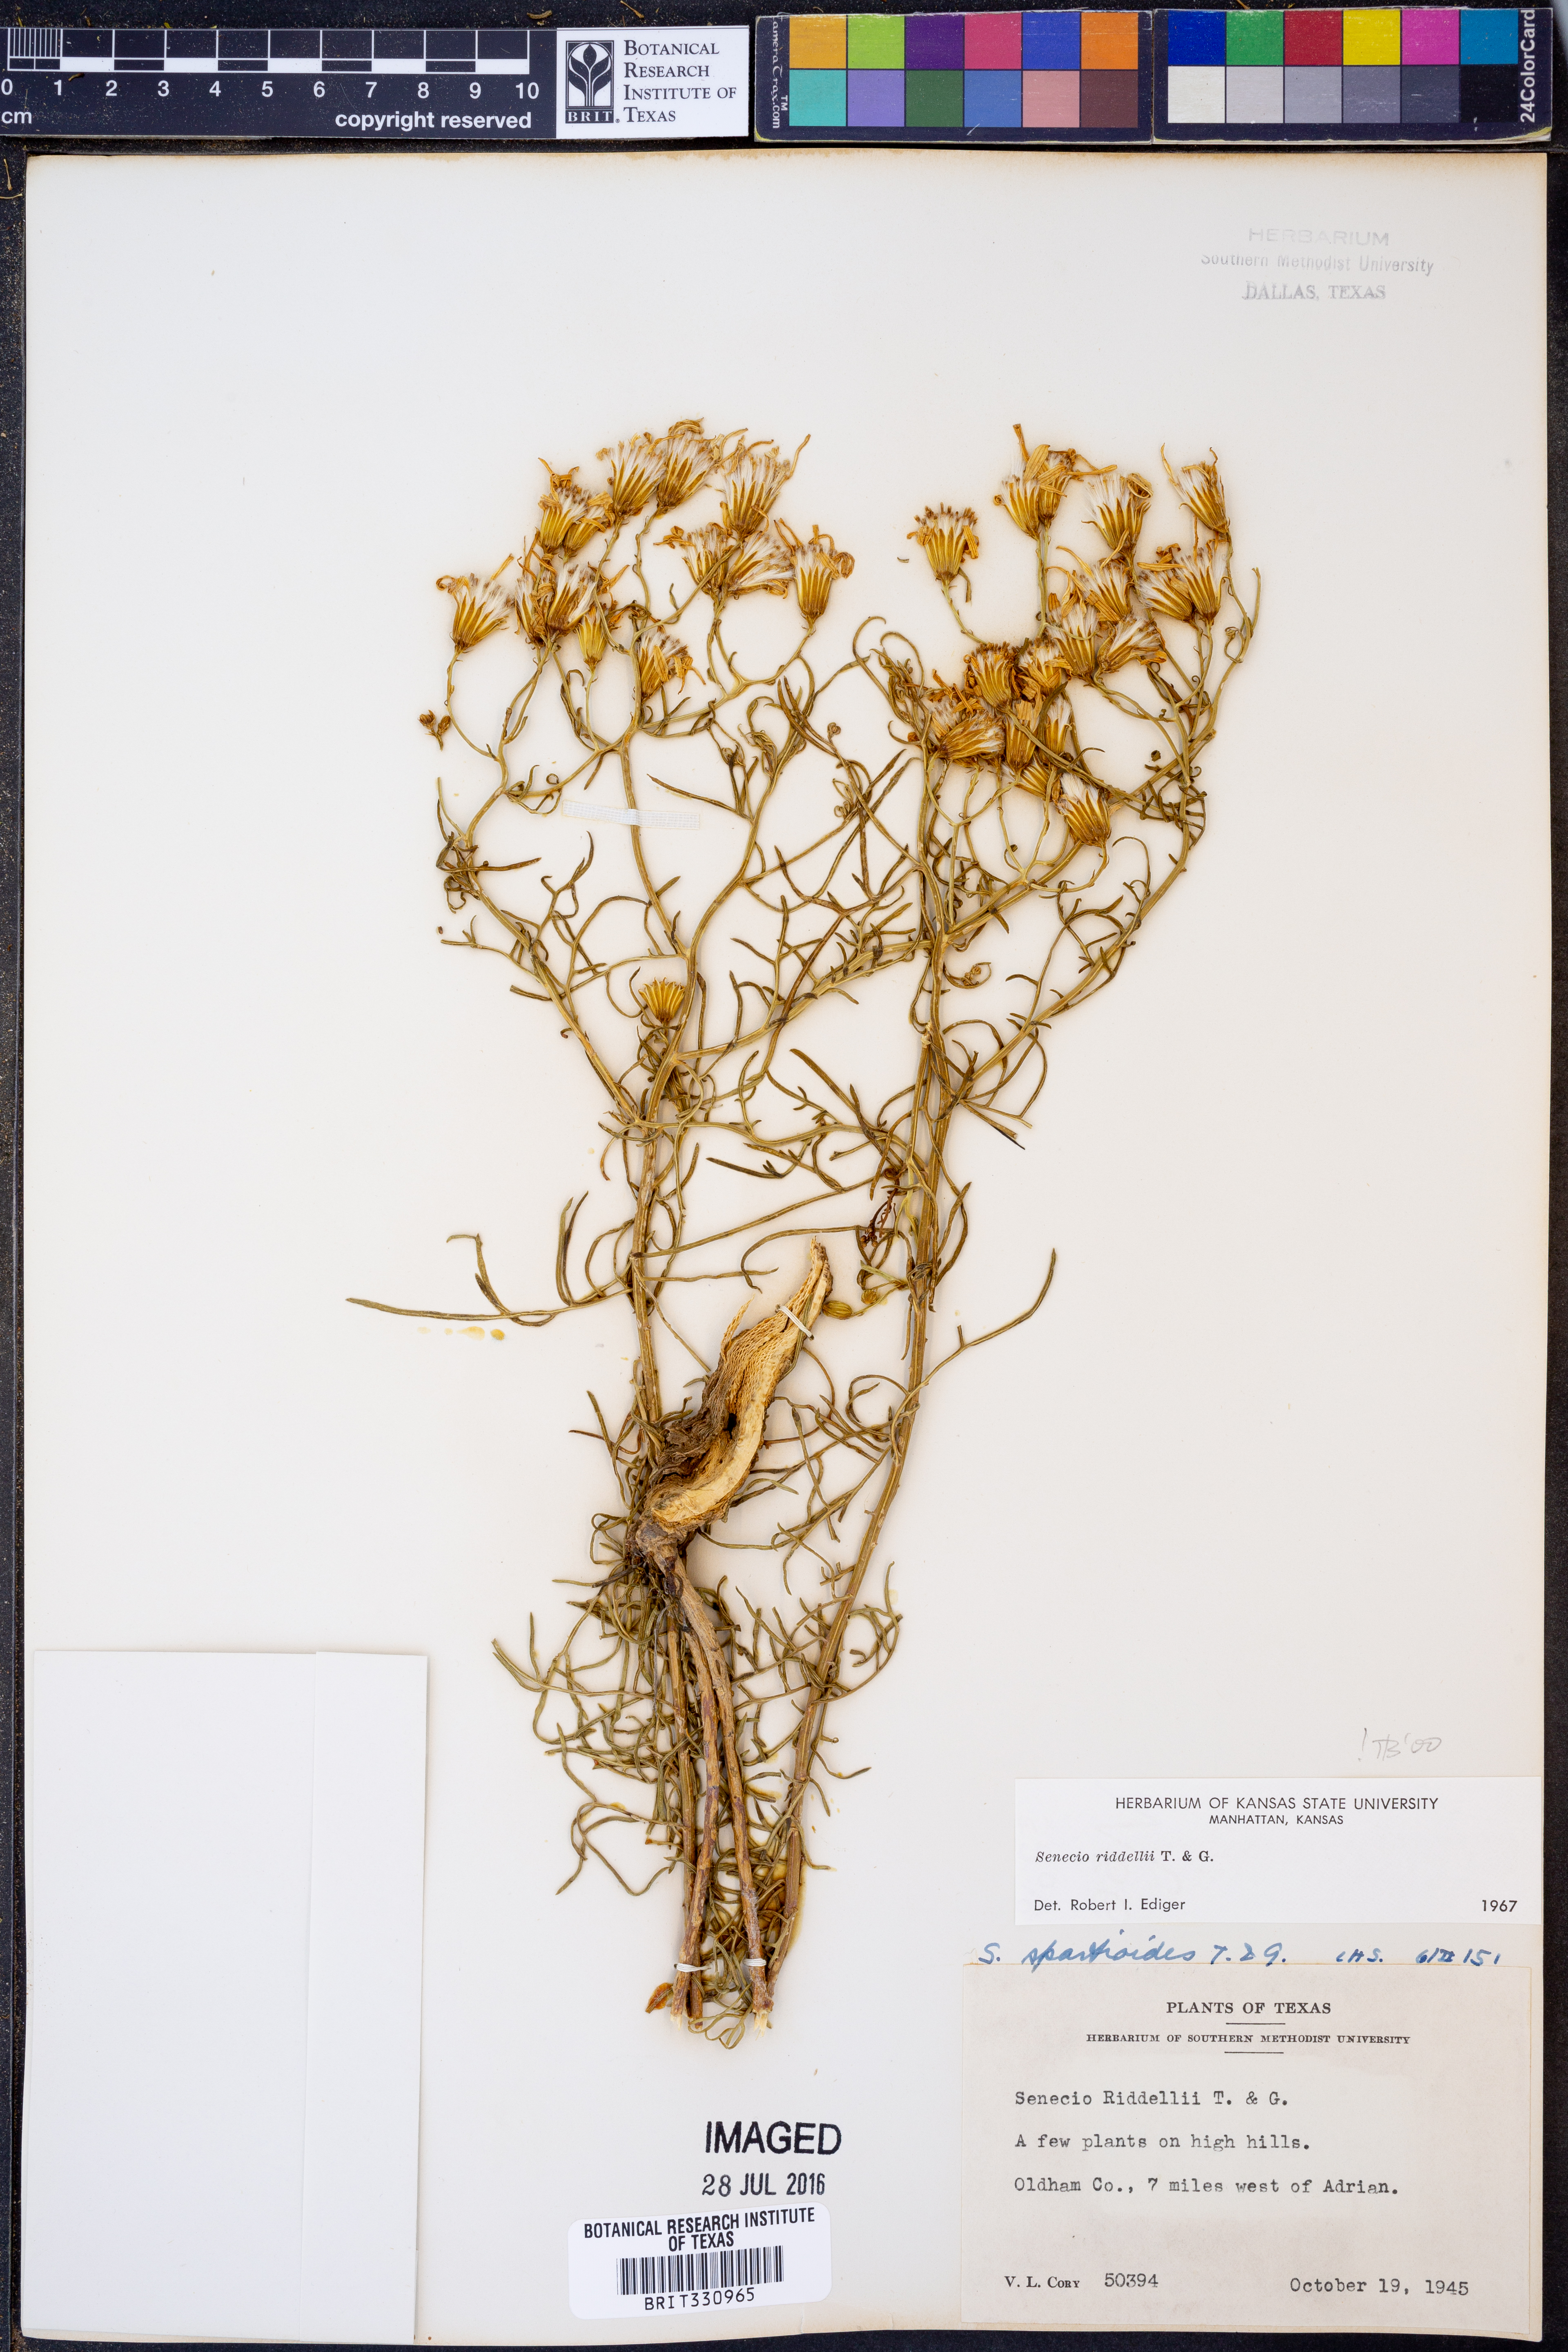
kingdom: Plantae
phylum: Tracheophyta
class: Magnoliopsida
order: Asterales
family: Asteraceae
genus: Senecio
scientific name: Senecio riddellii
